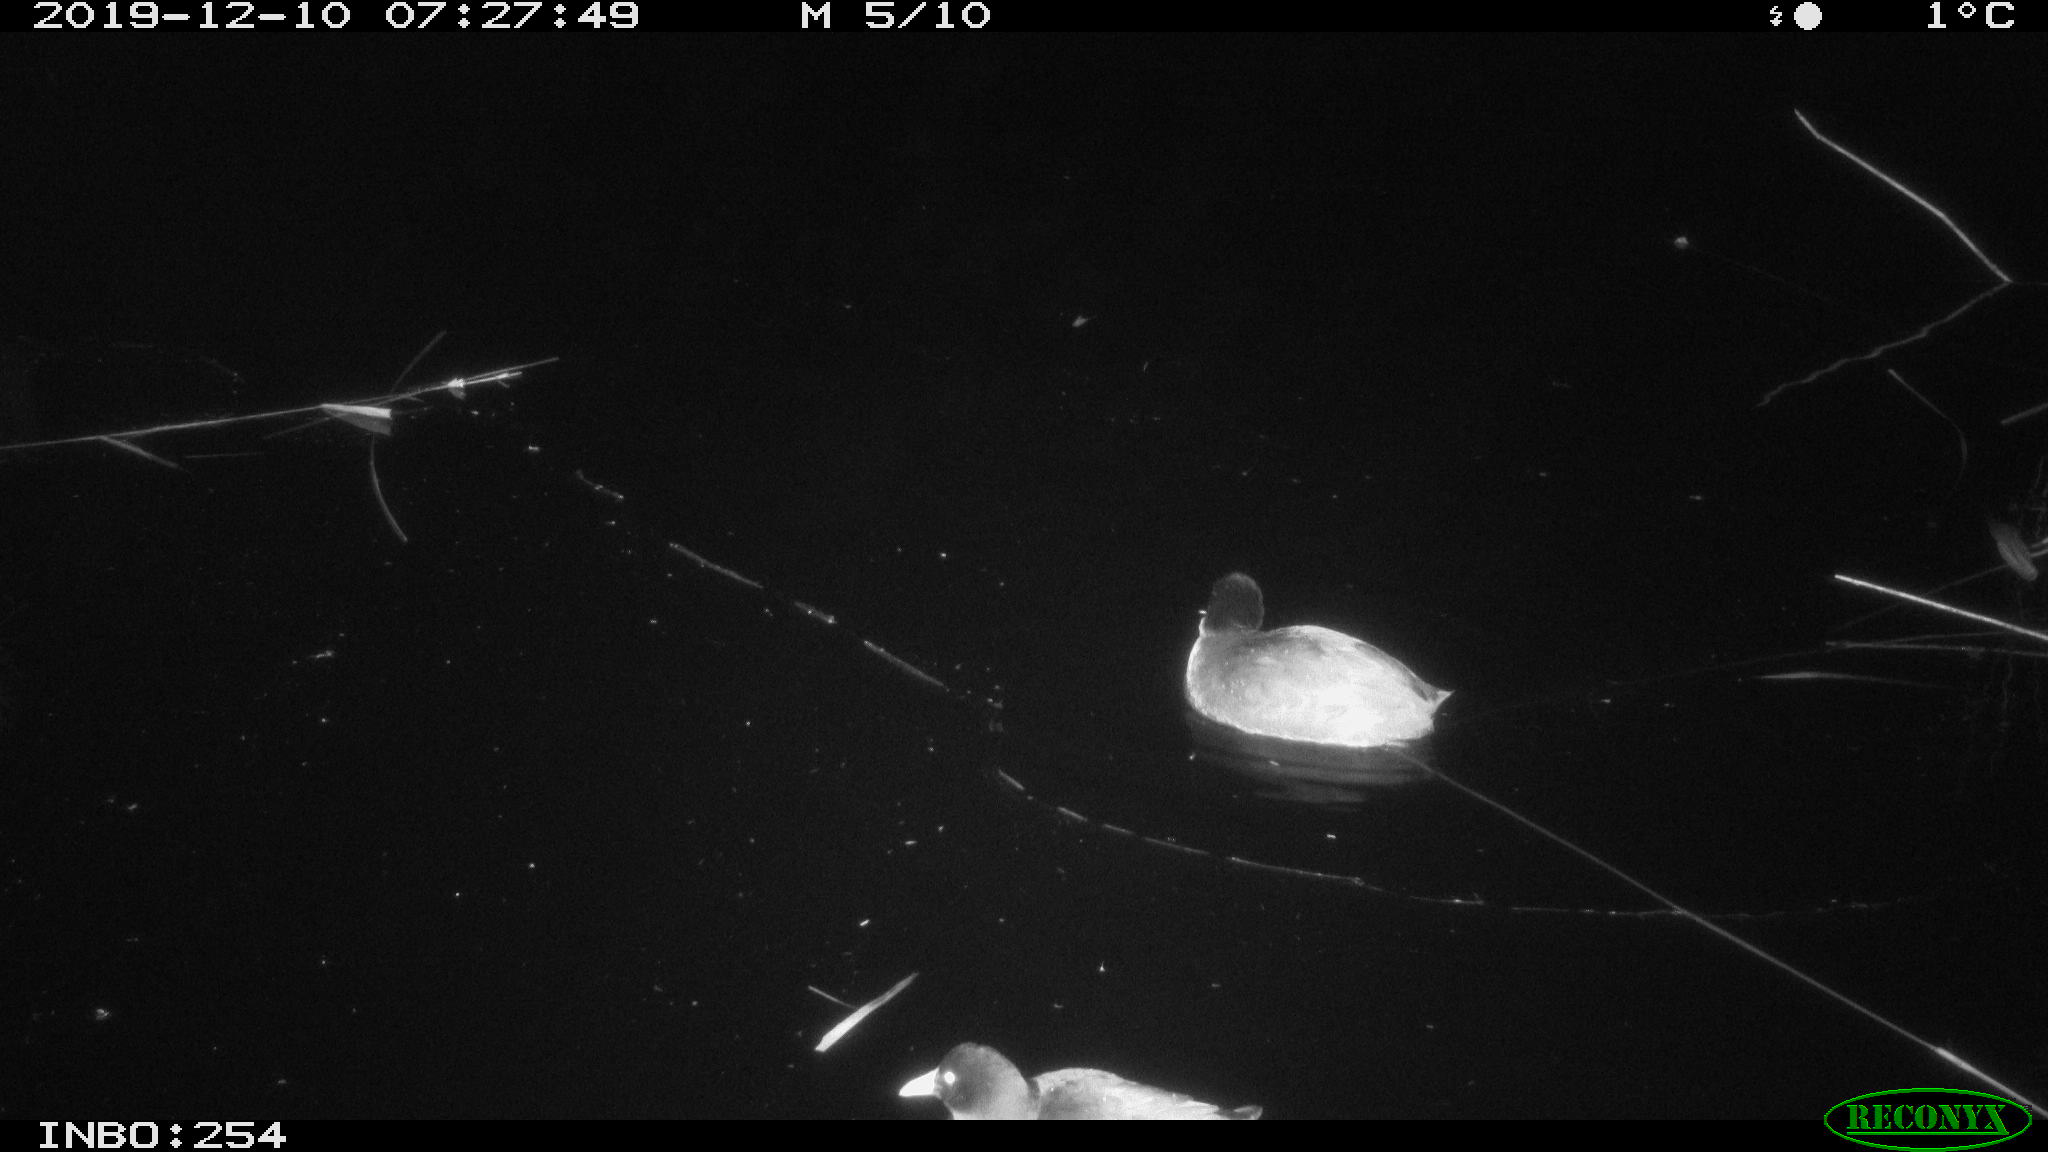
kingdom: Animalia
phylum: Chordata
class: Aves
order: Gruiformes
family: Rallidae
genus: Gallinula
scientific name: Gallinula chloropus
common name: Common moorhen
